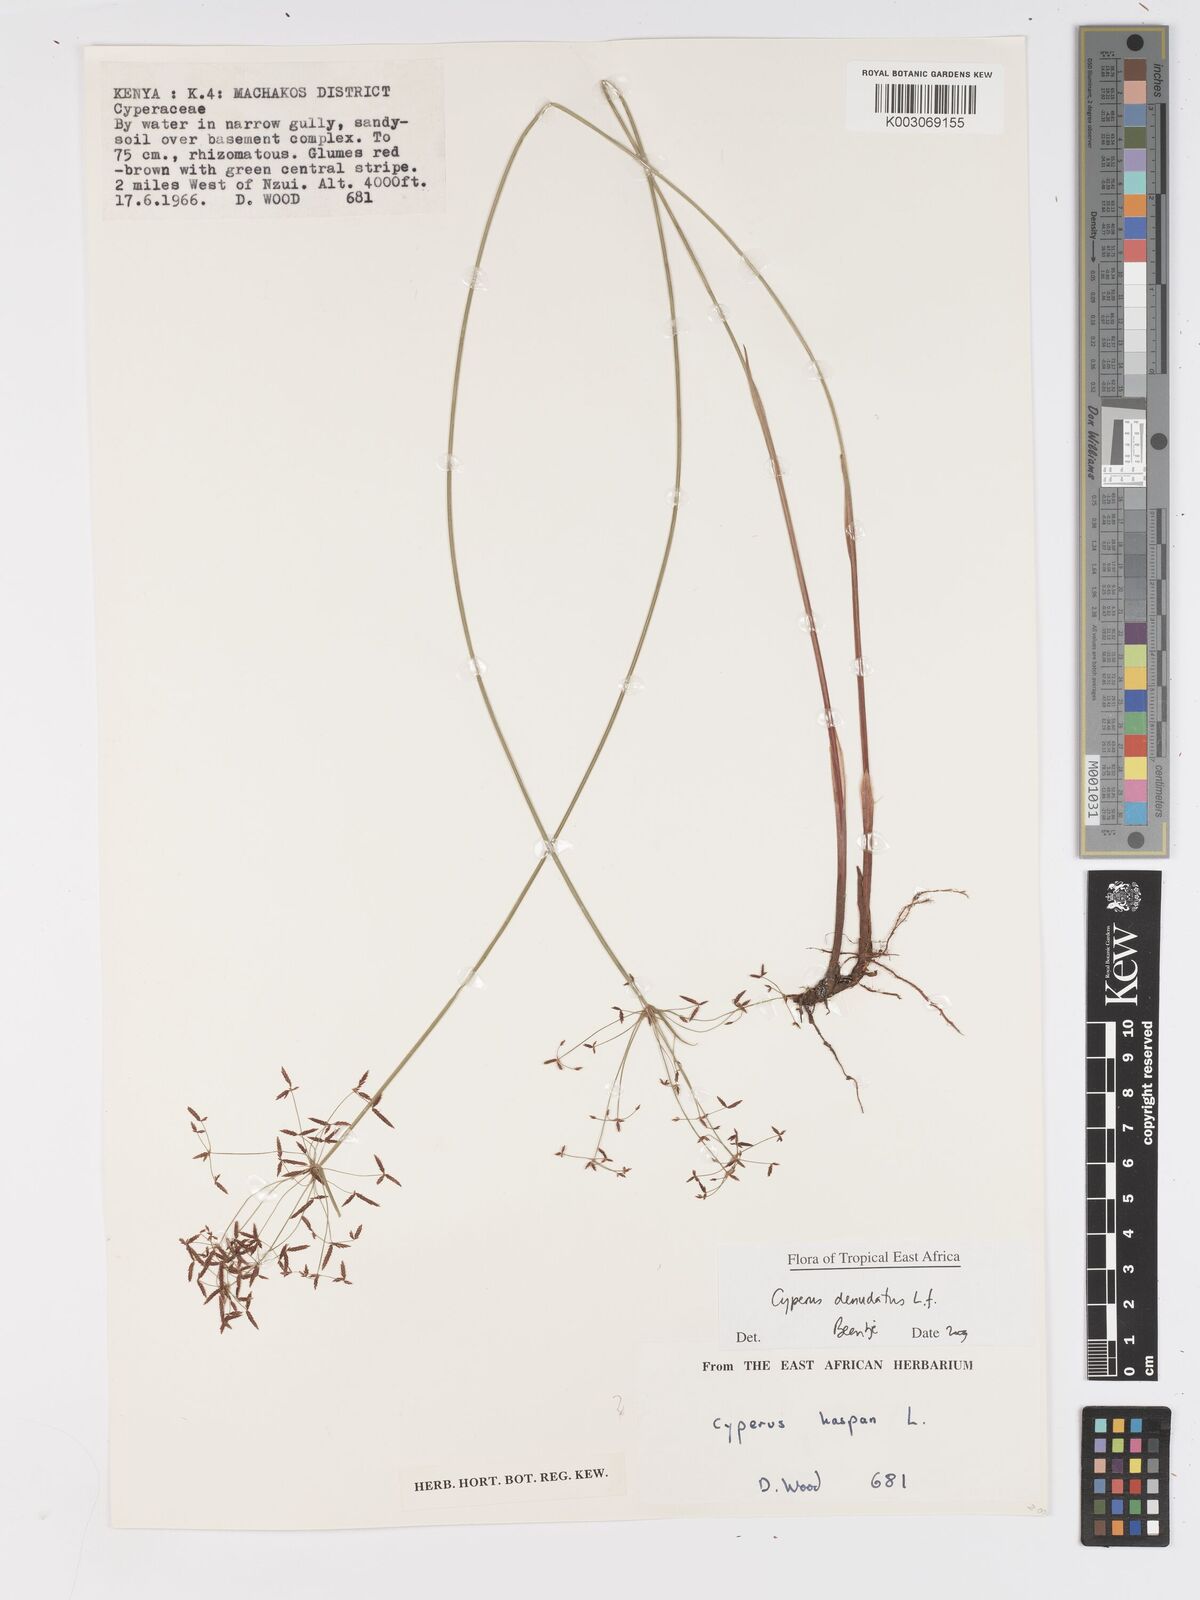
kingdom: Plantae
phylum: Tracheophyta
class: Liliopsida
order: Poales
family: Cyperaceae
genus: Cyperus
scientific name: Cyperus denudatus
